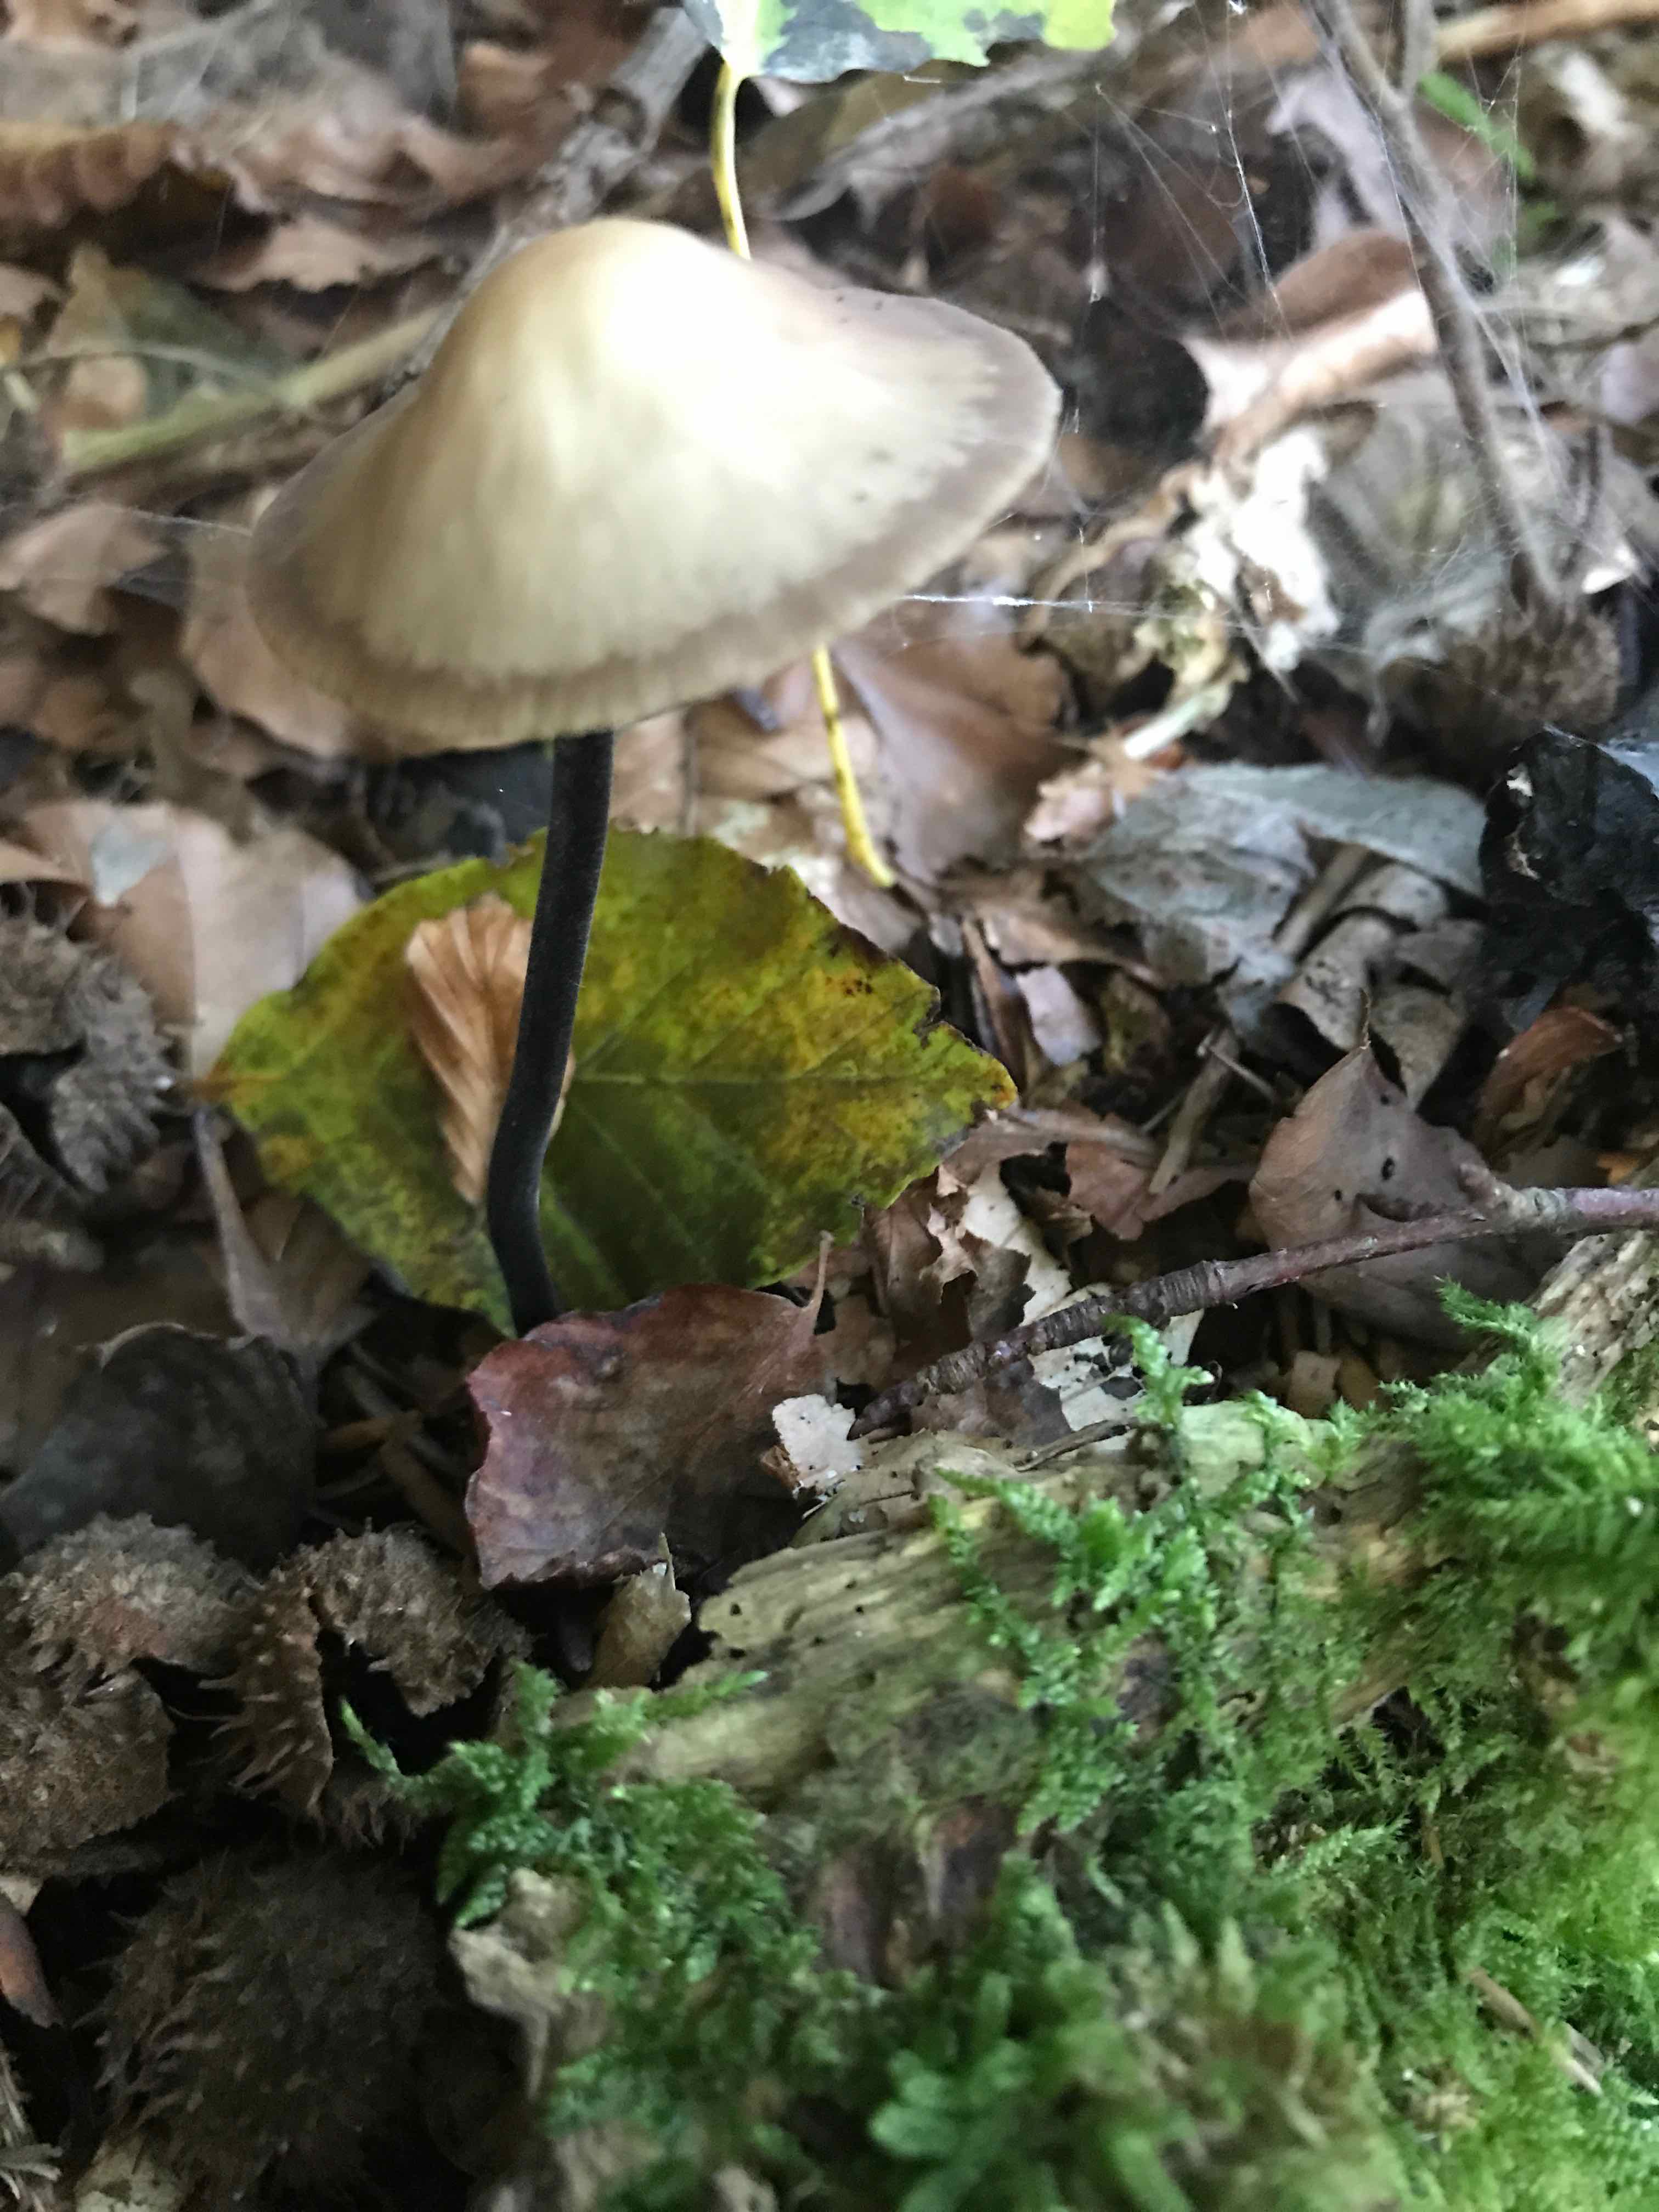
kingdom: Fungi
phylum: Basidiomycota
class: Agaricomycetes
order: Agaricales
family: Omphalotaceae
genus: Mycetinis
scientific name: Mycetinis alliaceus
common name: stor løghat
